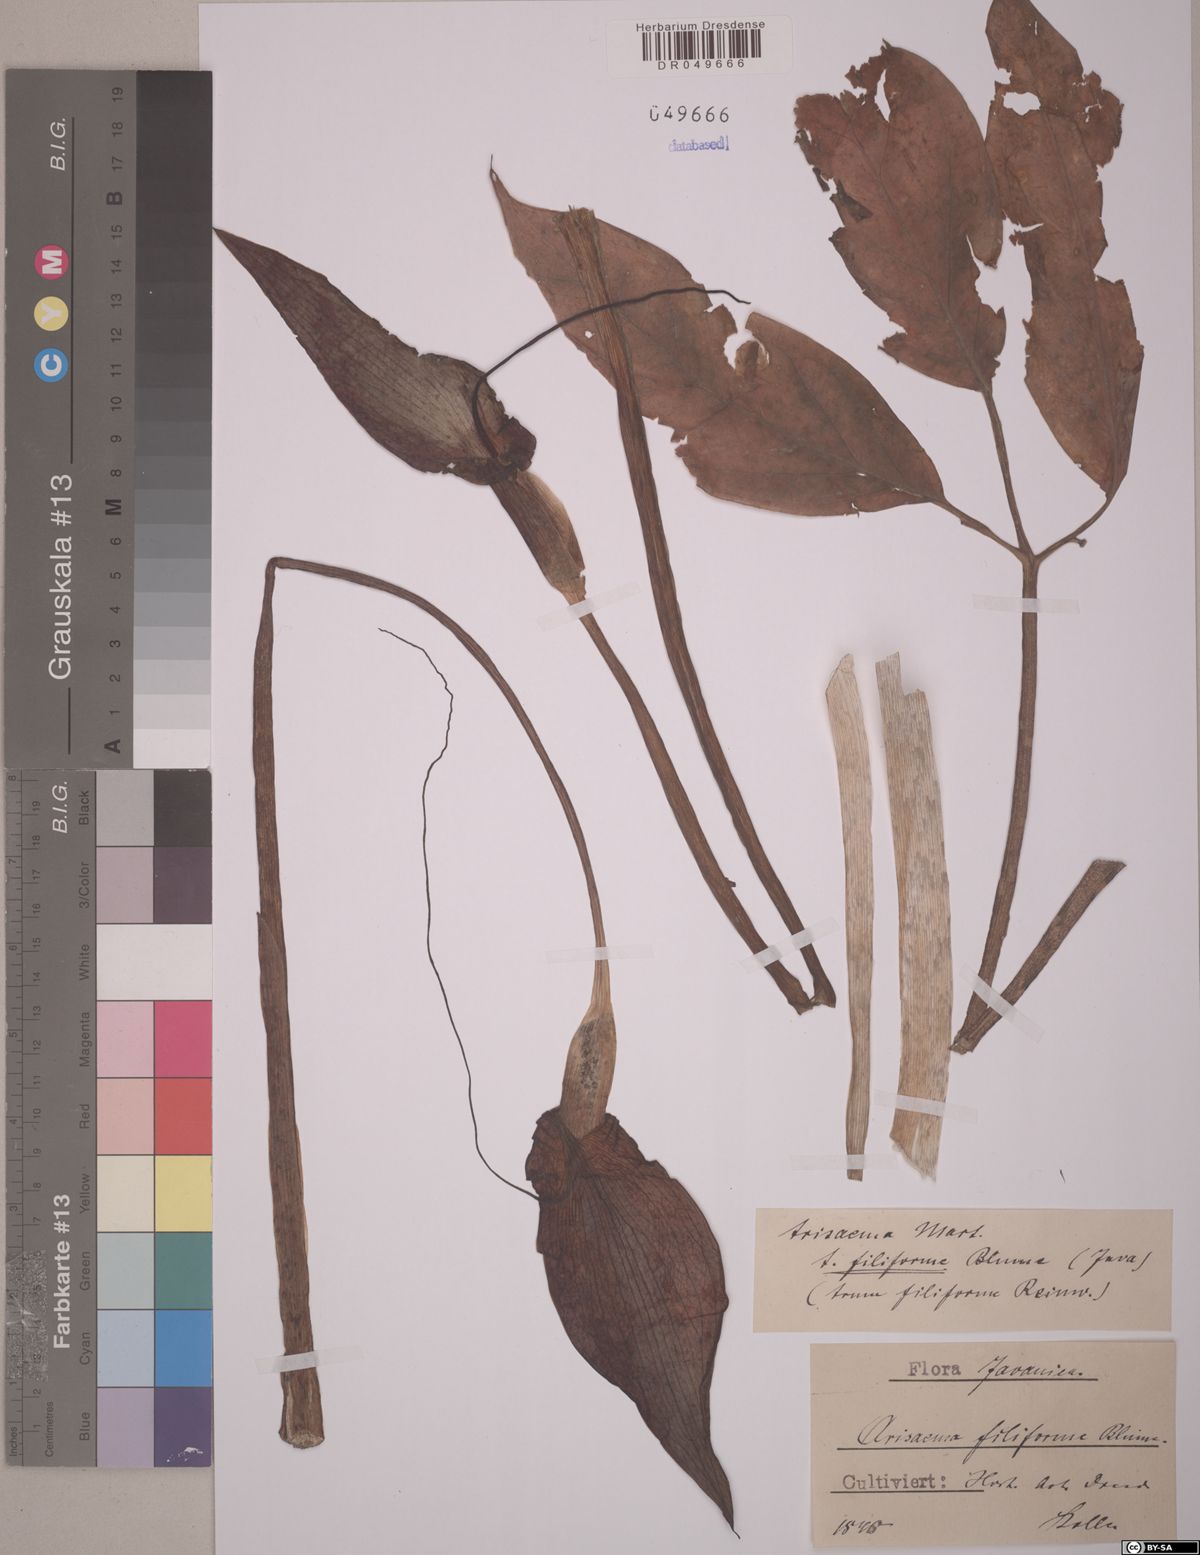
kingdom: Plantae
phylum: Tracheophyta
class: Liliopsida
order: Alismatales
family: Araceae
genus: Arisaema
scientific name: Arisaema filiforme
